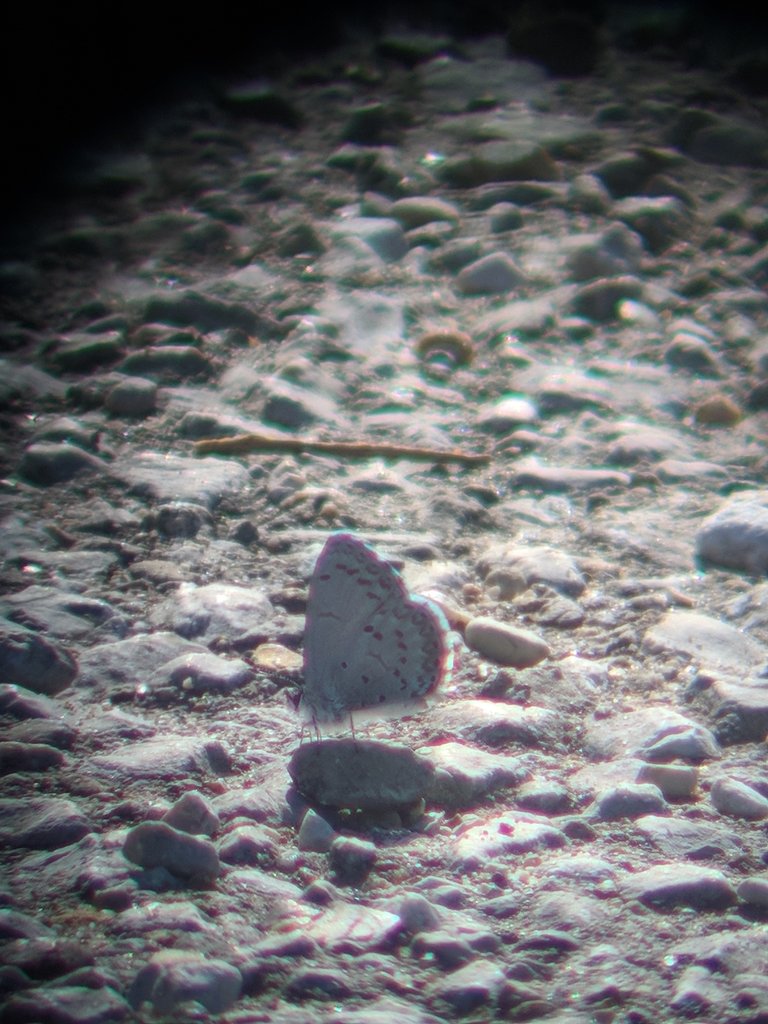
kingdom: Animalia
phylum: Arthropoda
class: Insecta
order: Lepidoptera
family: Lycaenidae
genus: Celastrina
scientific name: Celastrina ladon
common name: Spring Azure
